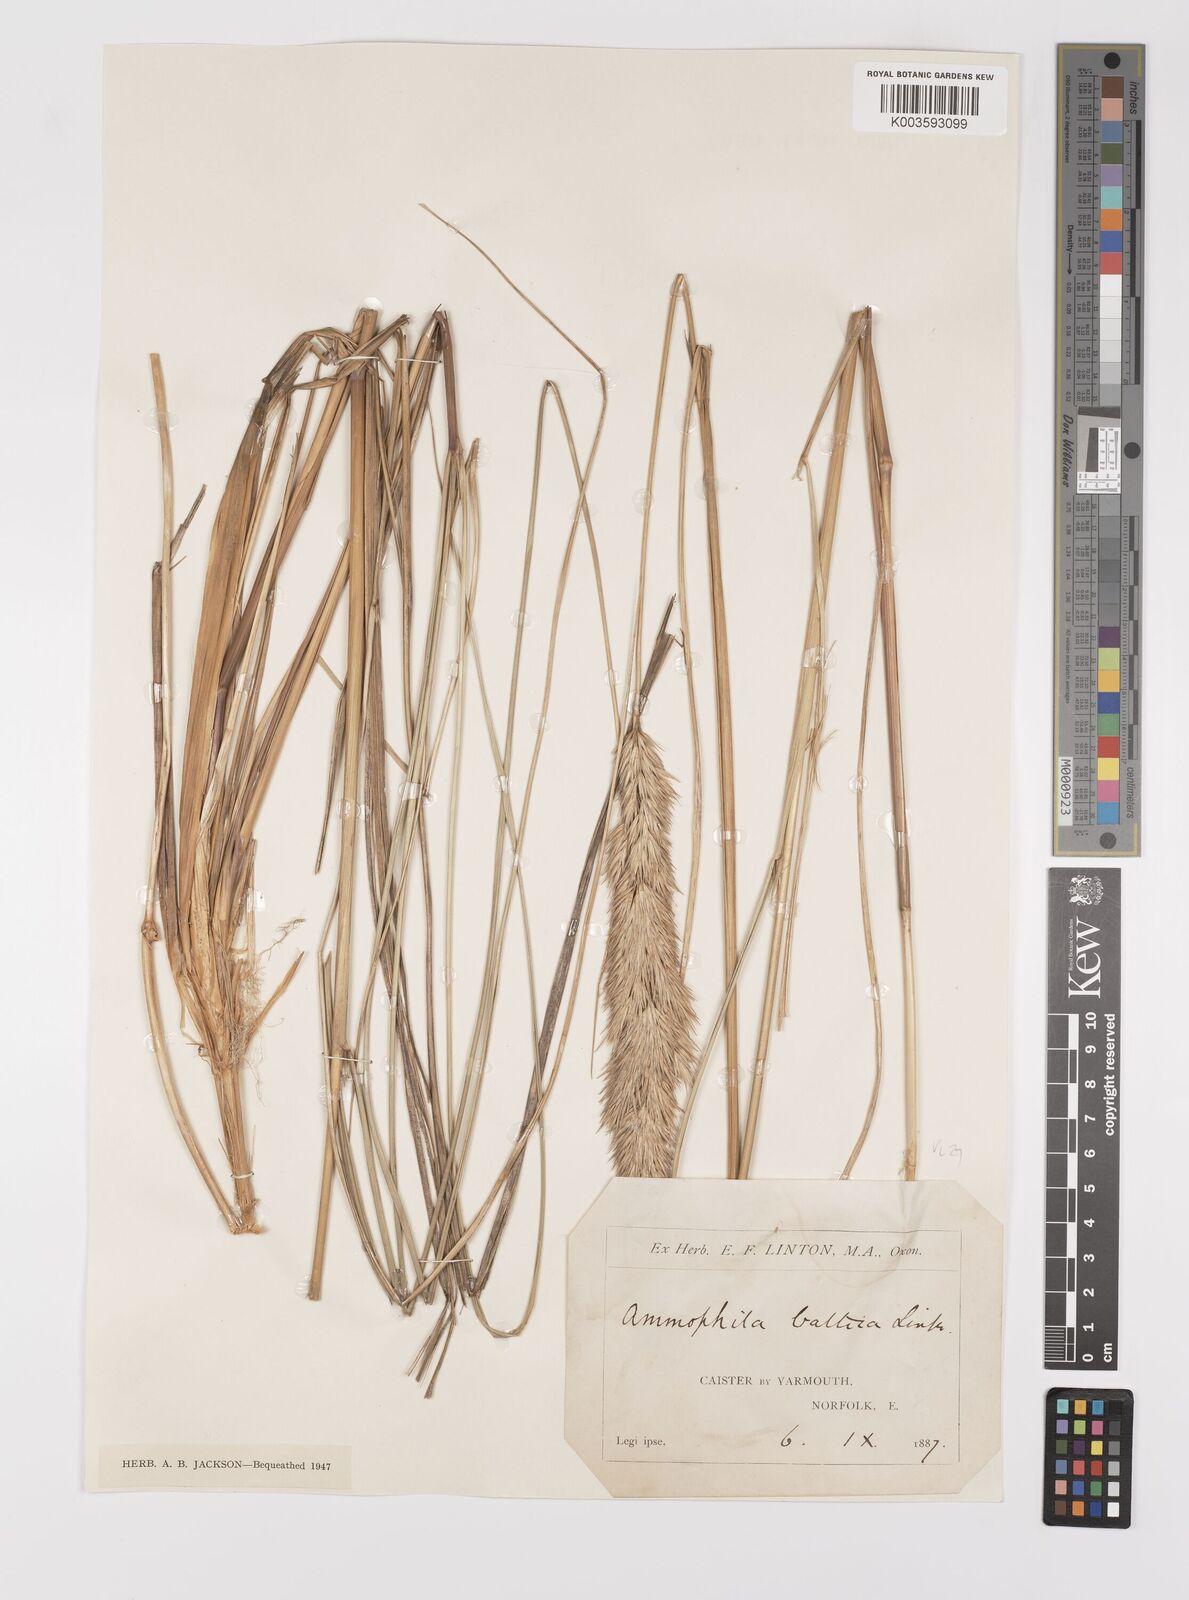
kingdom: Plantae
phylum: Tracheophyta
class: Liliopsida
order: Poales
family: Poaceae
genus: Calamagrostis
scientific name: Calamagrostis baltica
